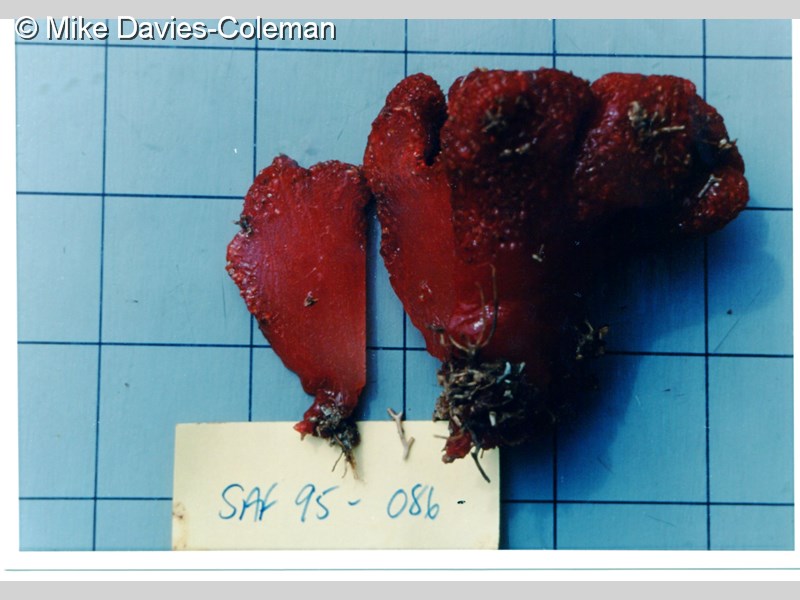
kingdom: Animalia
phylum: Chordata
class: Ascidiacea
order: Aplousobranchia
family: Polycitoridae
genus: Eudistoma
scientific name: Eudistoma
